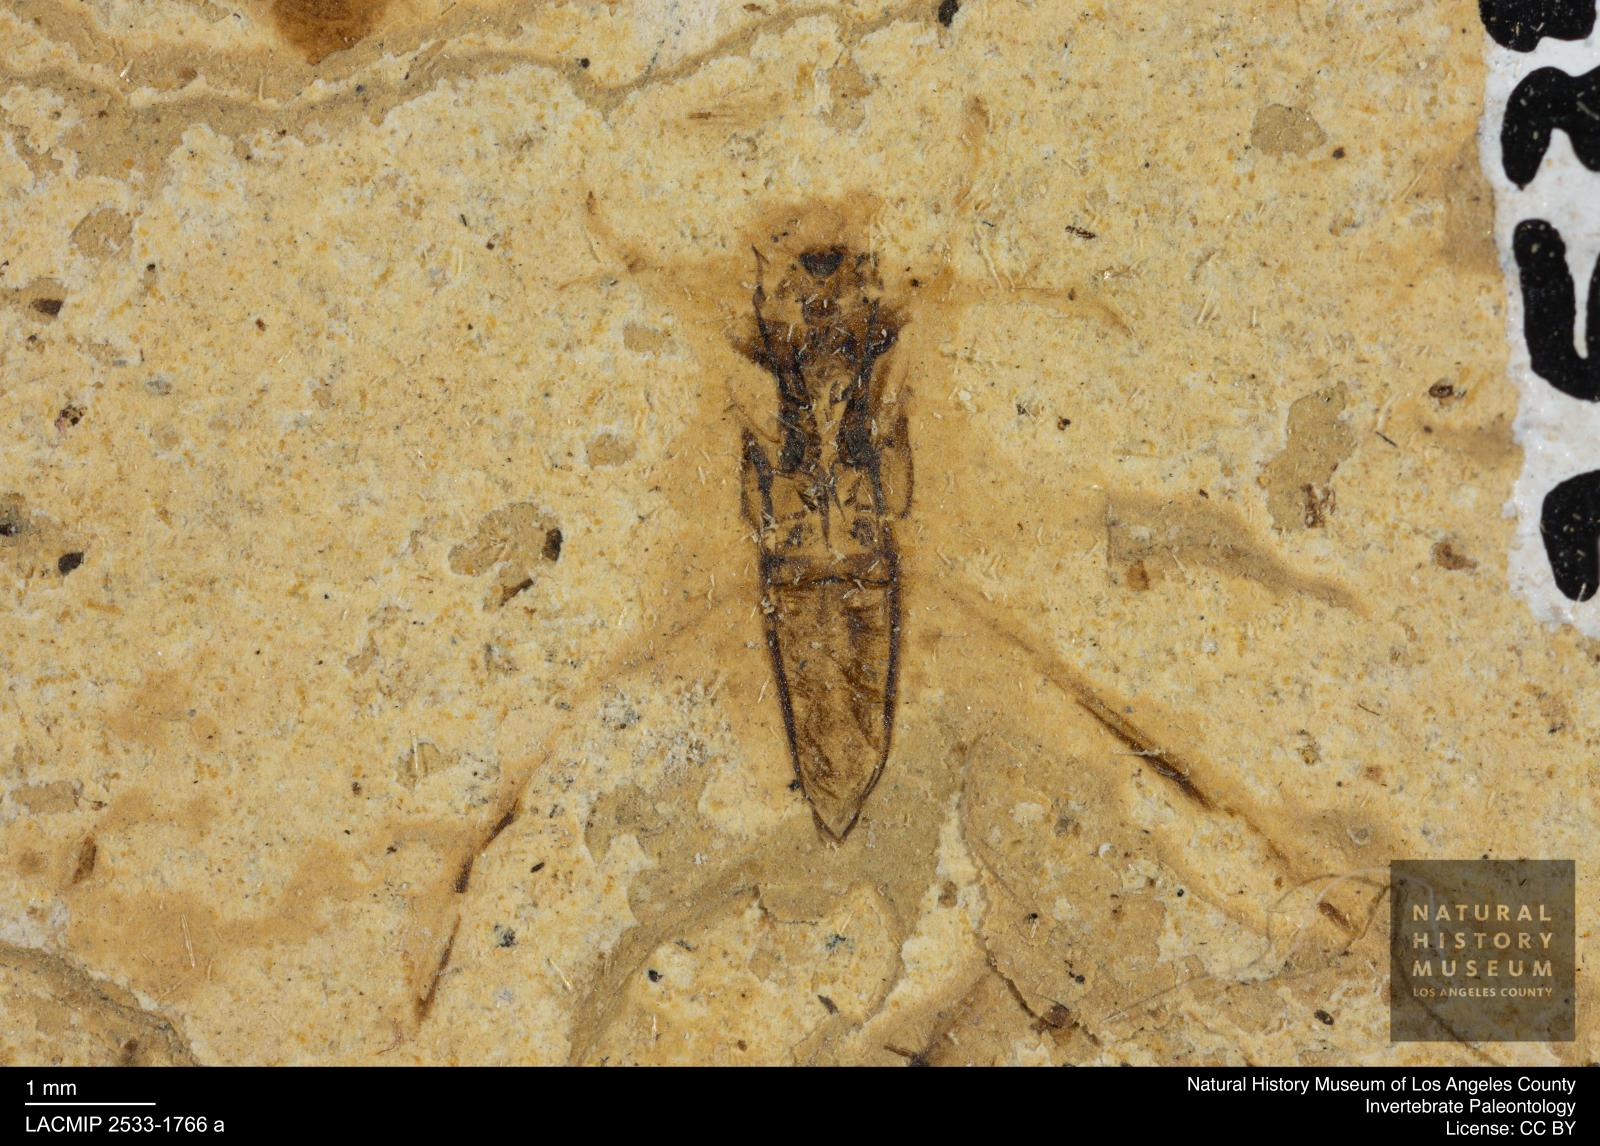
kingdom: Animalia
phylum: Arthropoda
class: Insecta
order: Hemiptera
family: Notonectidae
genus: Notonecta
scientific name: Notonecta
